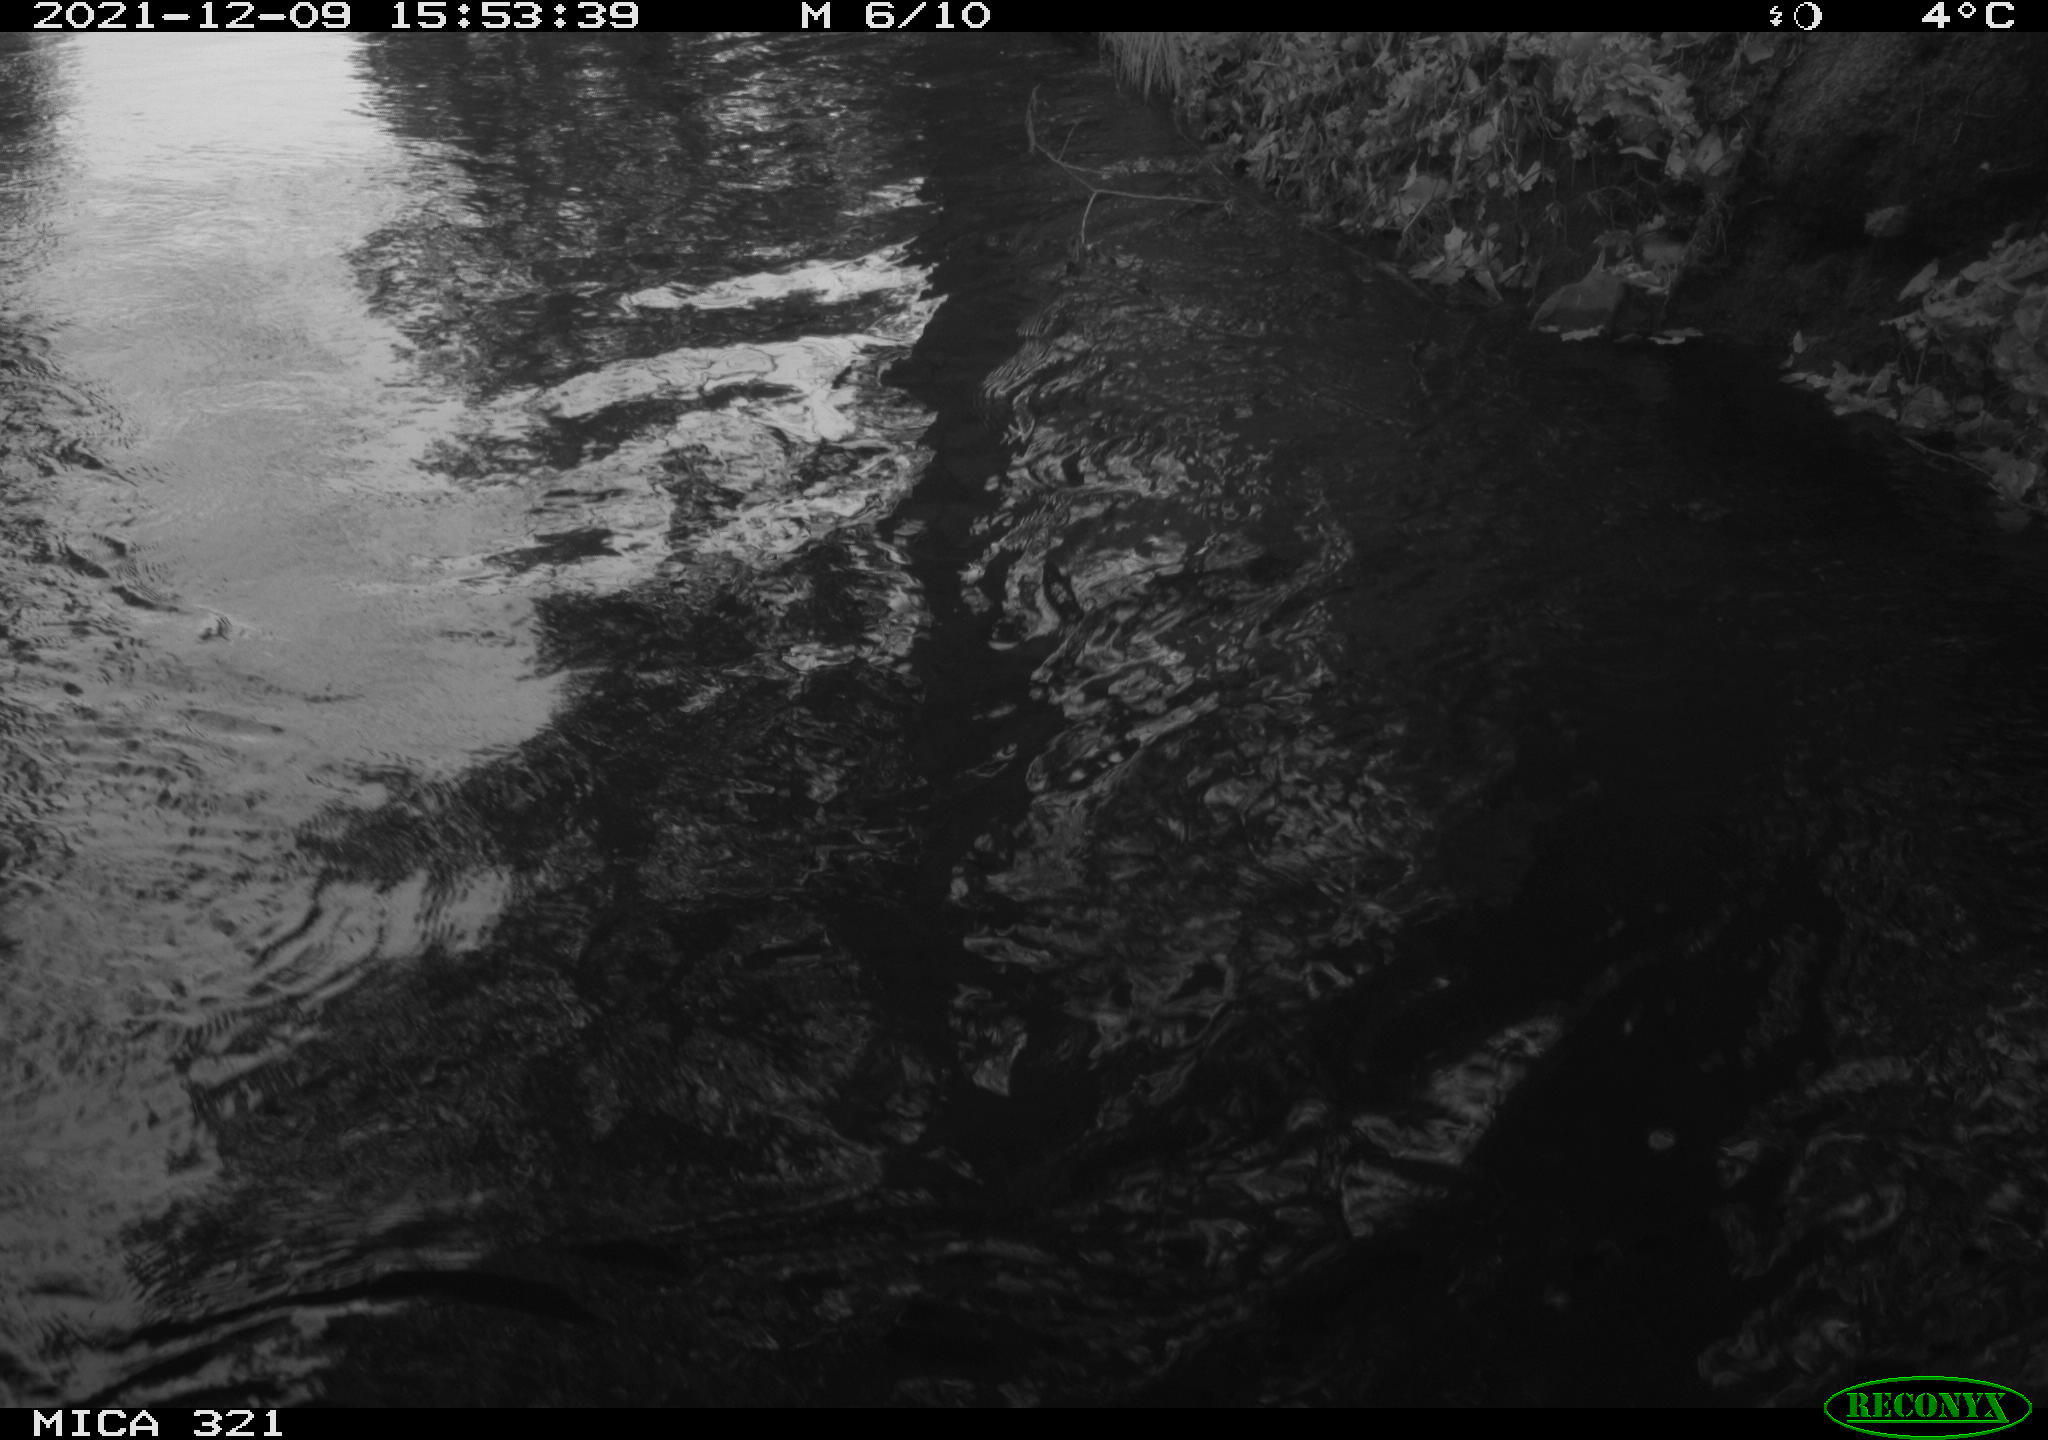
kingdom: Animalia
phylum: Chordata
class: Aves
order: Suliformes
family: Phalacrocoracidae
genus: Phalacrocorax
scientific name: Phalacrocorax carbo
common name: Great cormorant
